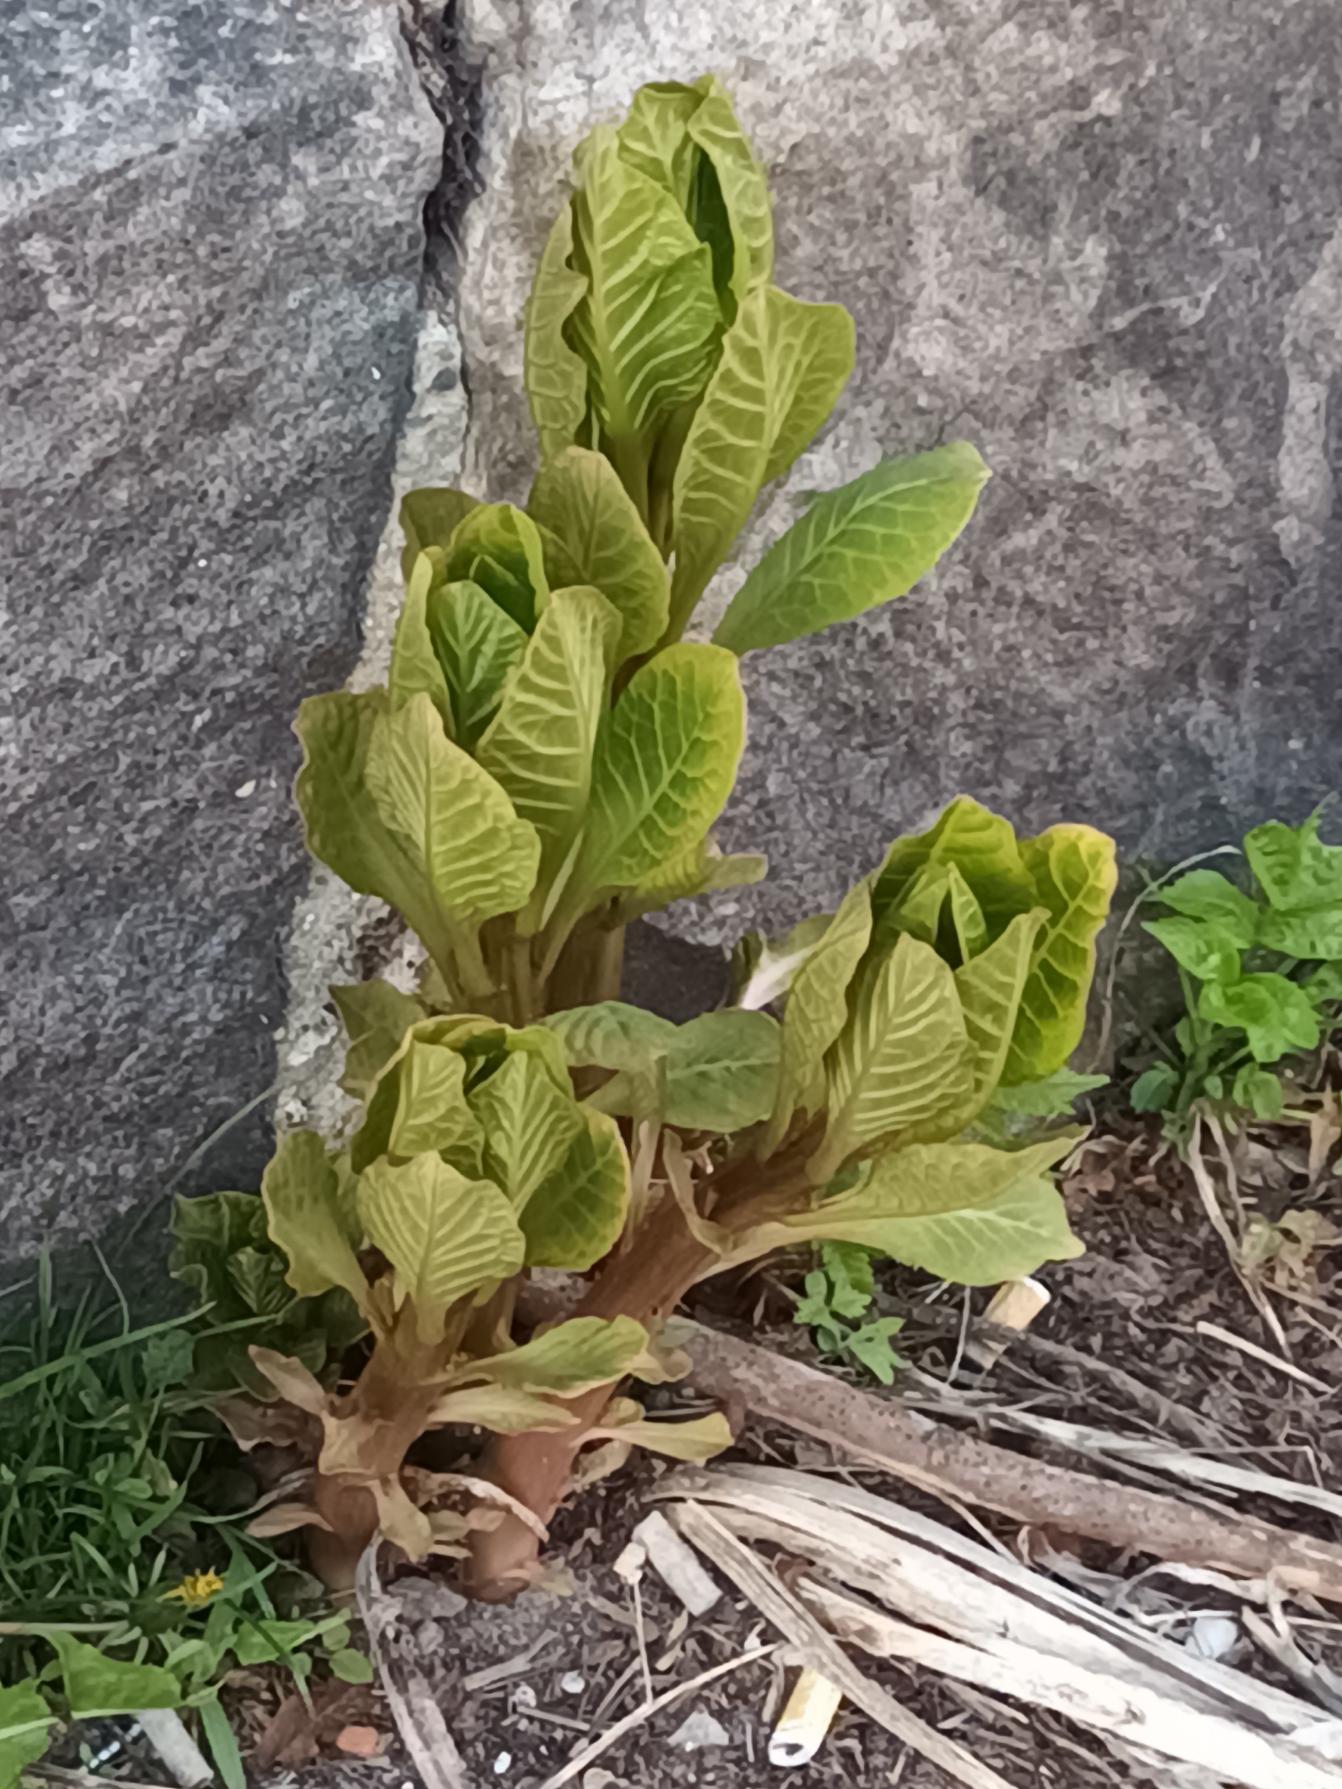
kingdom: Plantae
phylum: Tracheophyta
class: Magnoliopsida
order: Caryophyllales
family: Phytolaccaceae
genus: Phytolacca
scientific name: Phytolacca acinosa
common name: Asiatisk kermesbær
